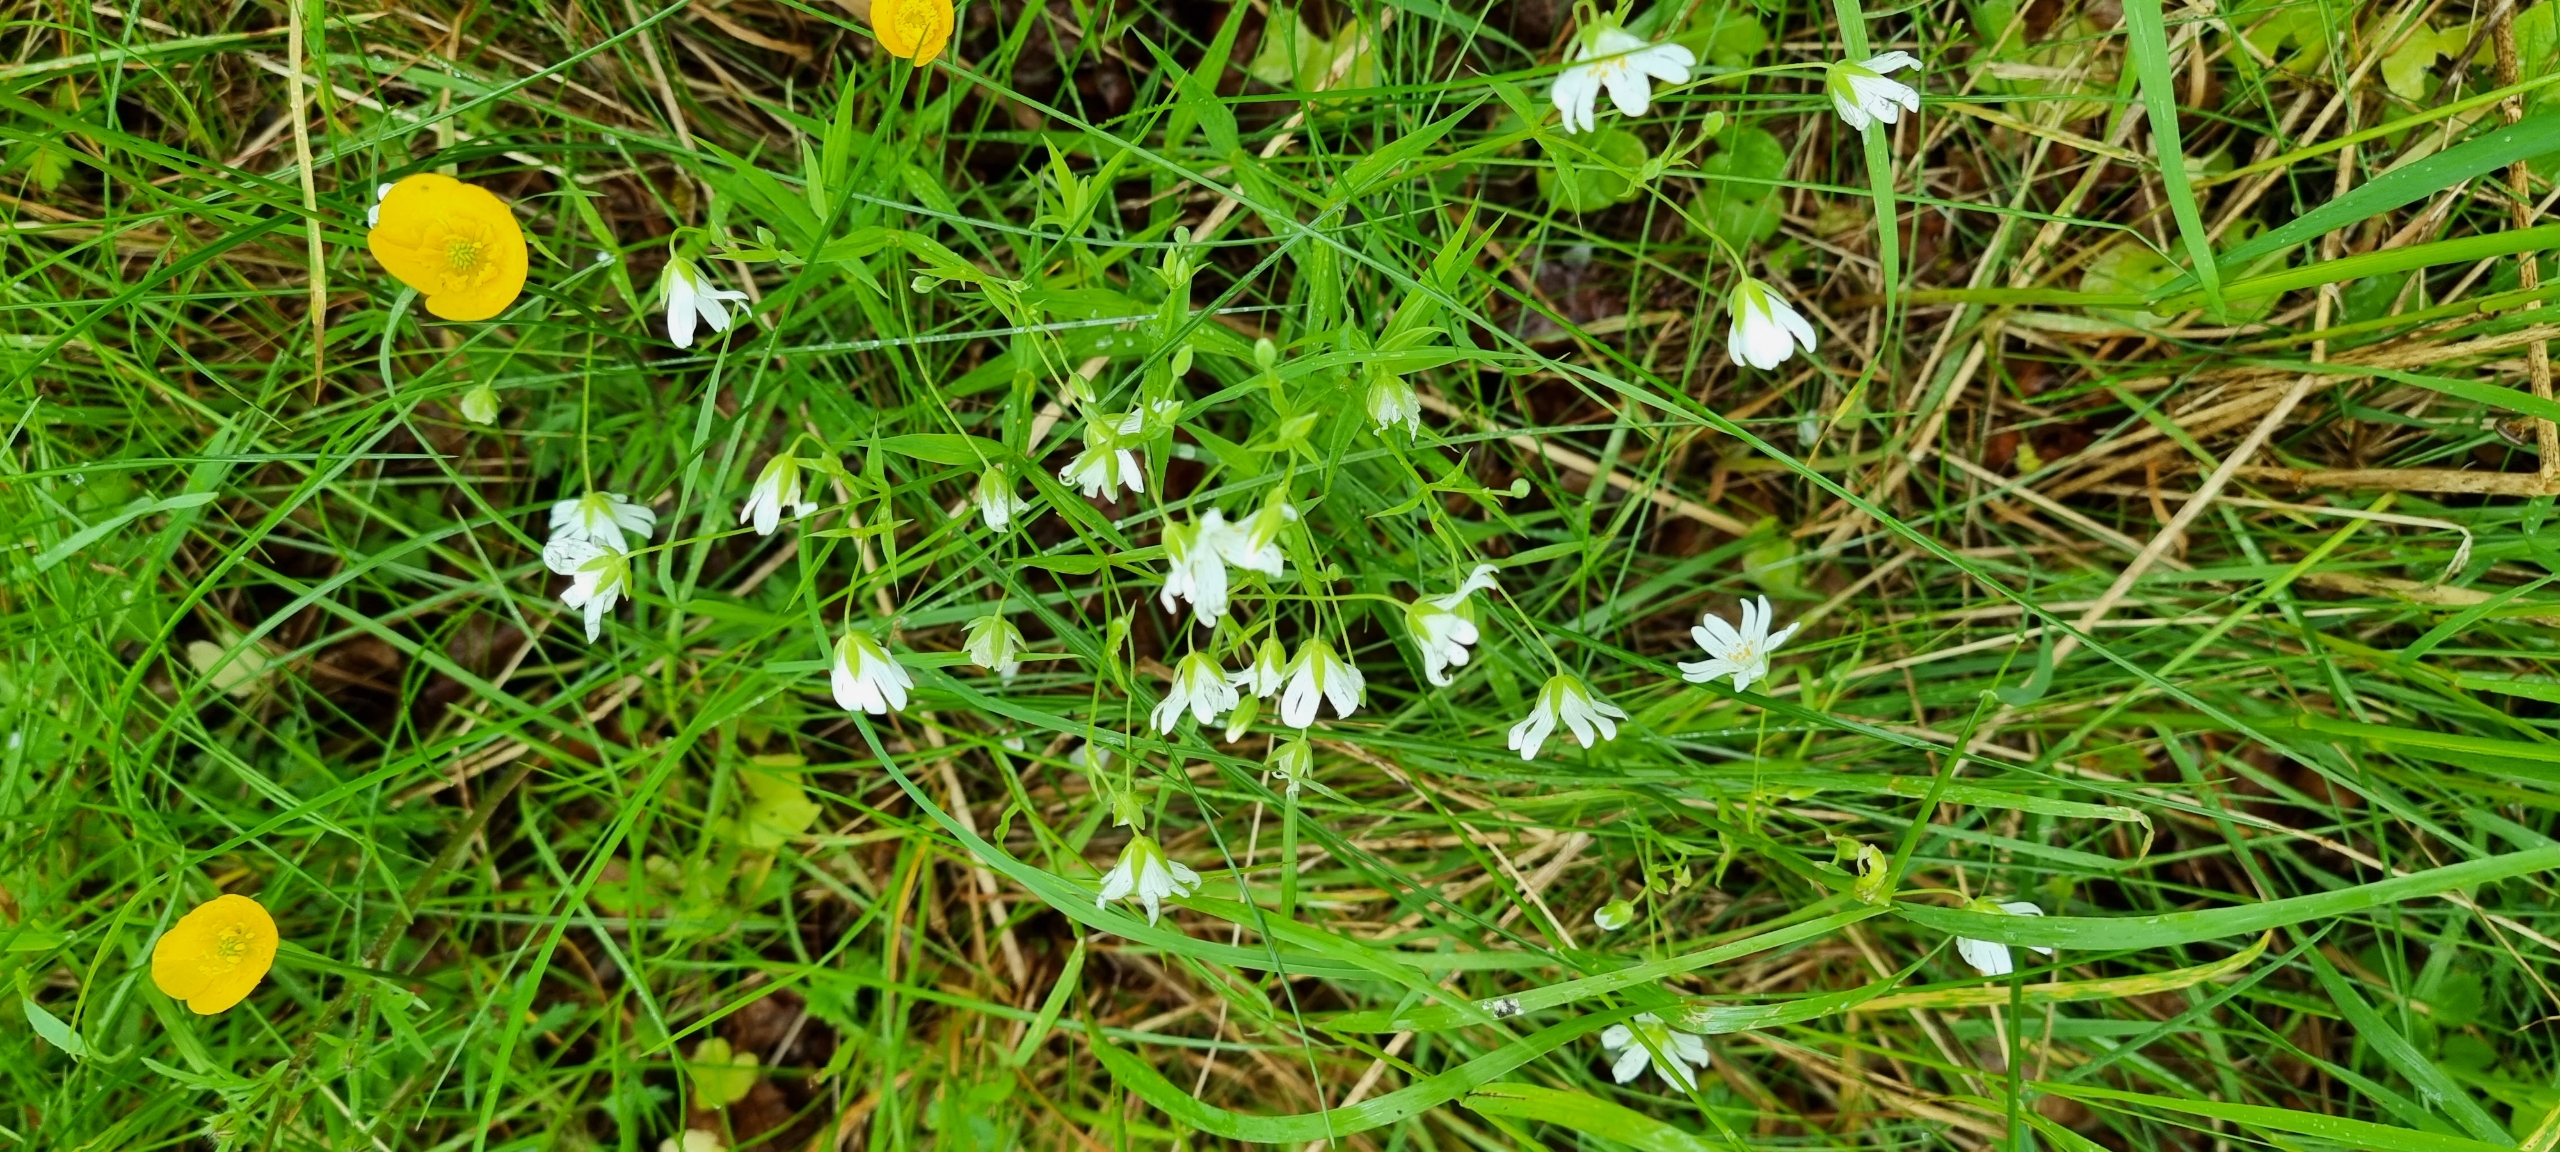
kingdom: Plantae
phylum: Tracheophyta
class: Magnoliopsida
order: Caryophyllales
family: Caryophyllaceae
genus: Rabelera
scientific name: Rabelera holostea
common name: Stor fladstjerne
